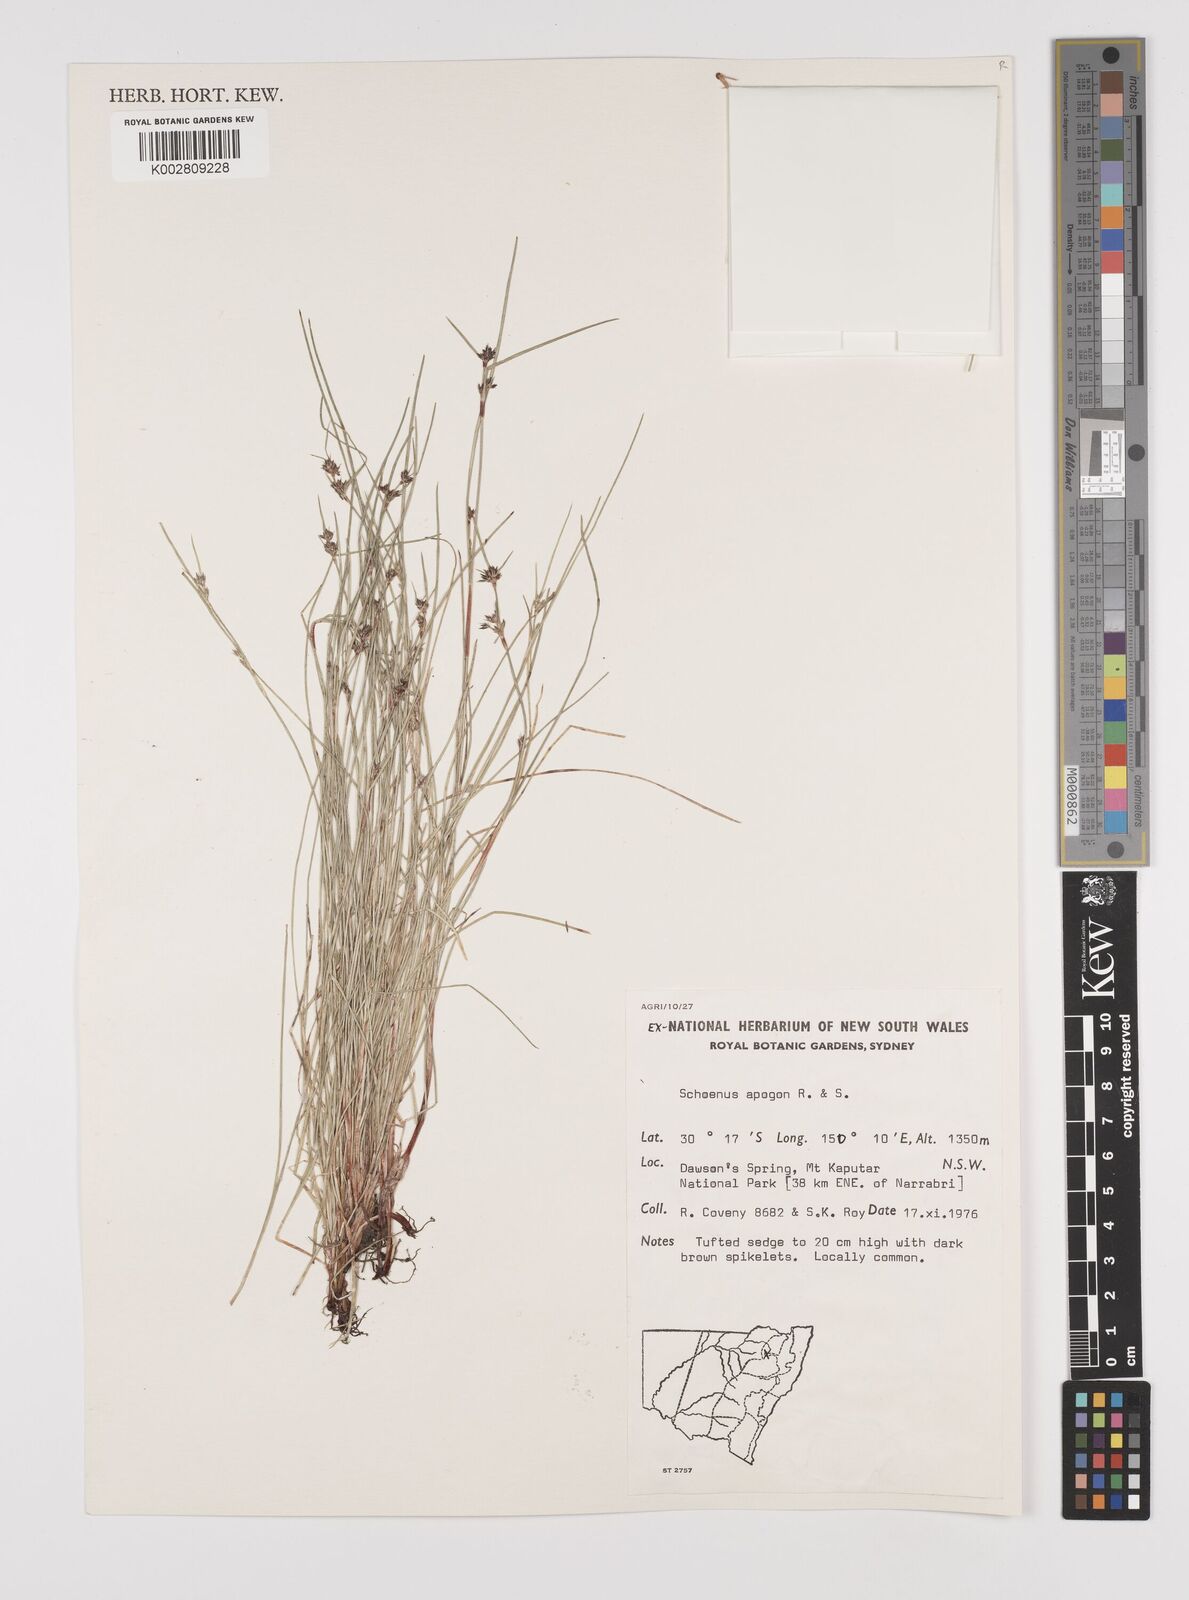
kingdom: Plantae
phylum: Tracheophyta
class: Liliopsida
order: Poales
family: Cyperaceae
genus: Schoenus
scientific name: Schoenus apogon
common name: Smooth bogrush
